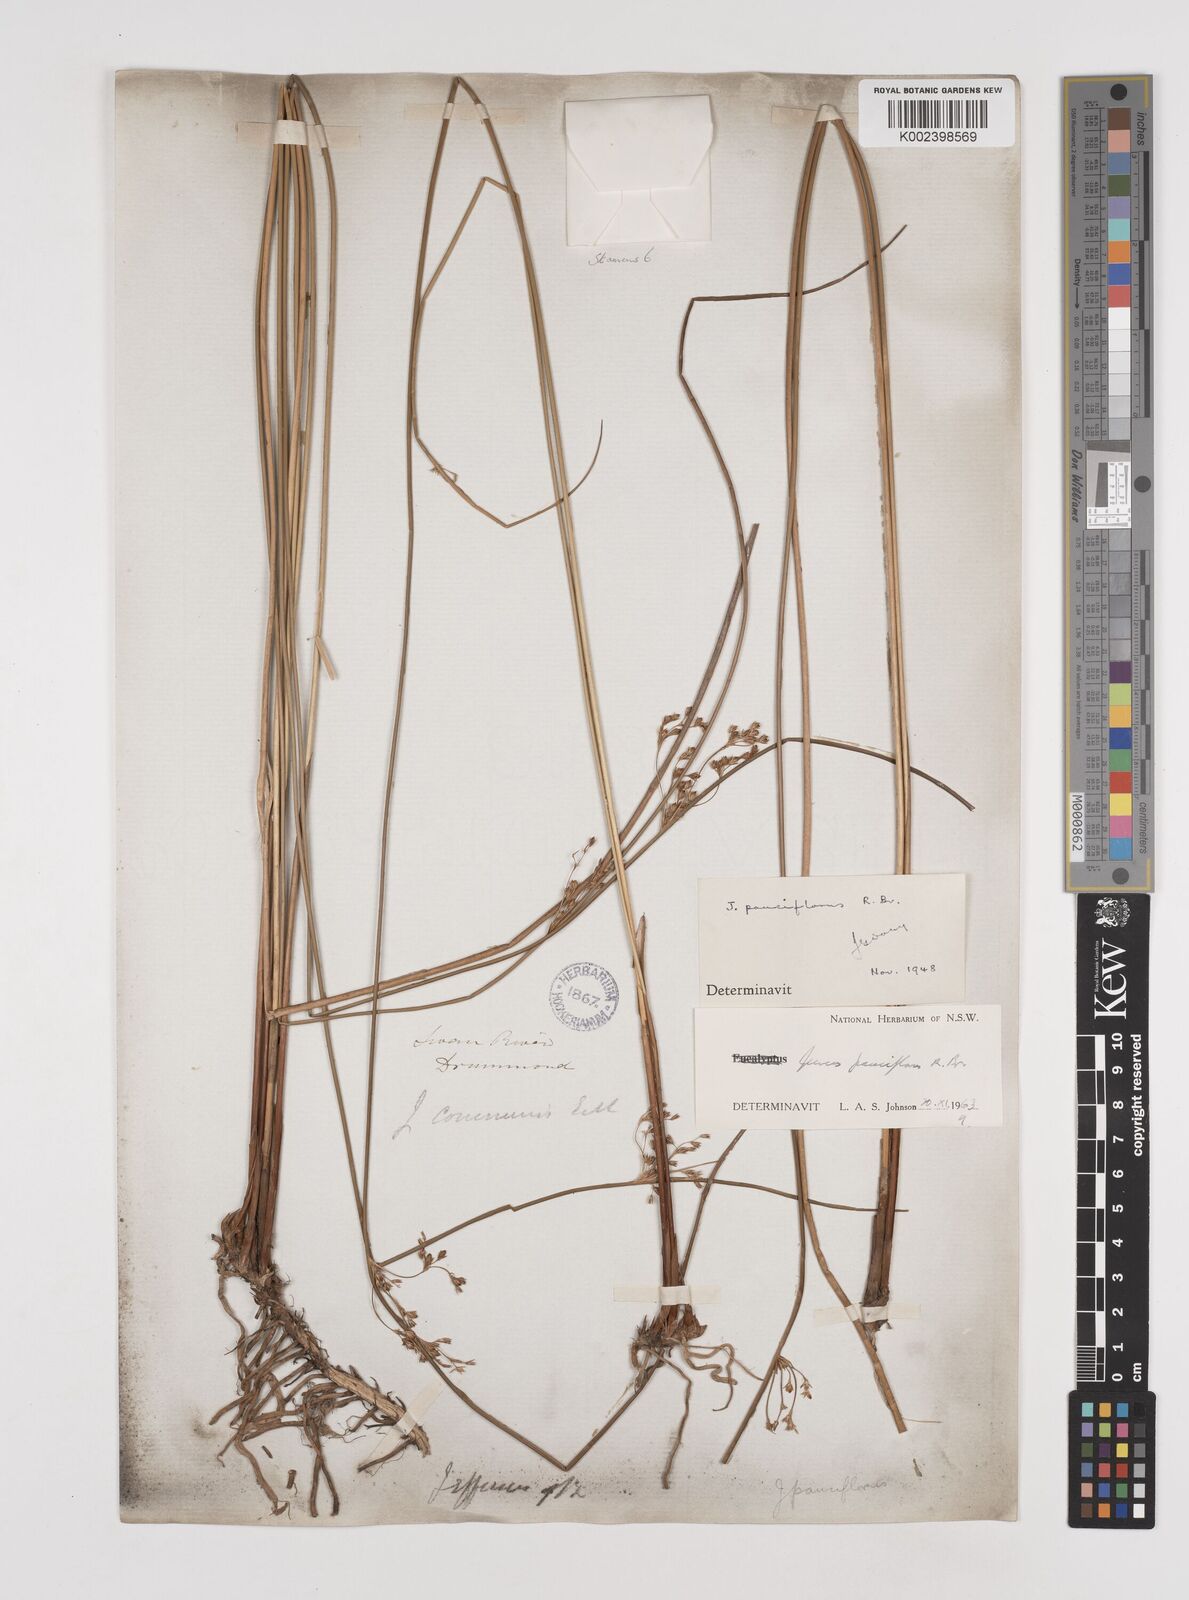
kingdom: Plantae
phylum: Tracheophyta
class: Liliopsida
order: Poales
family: Juncaceae
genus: Juncus
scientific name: Juncus pauciflorus
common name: Loose-flowered rush
